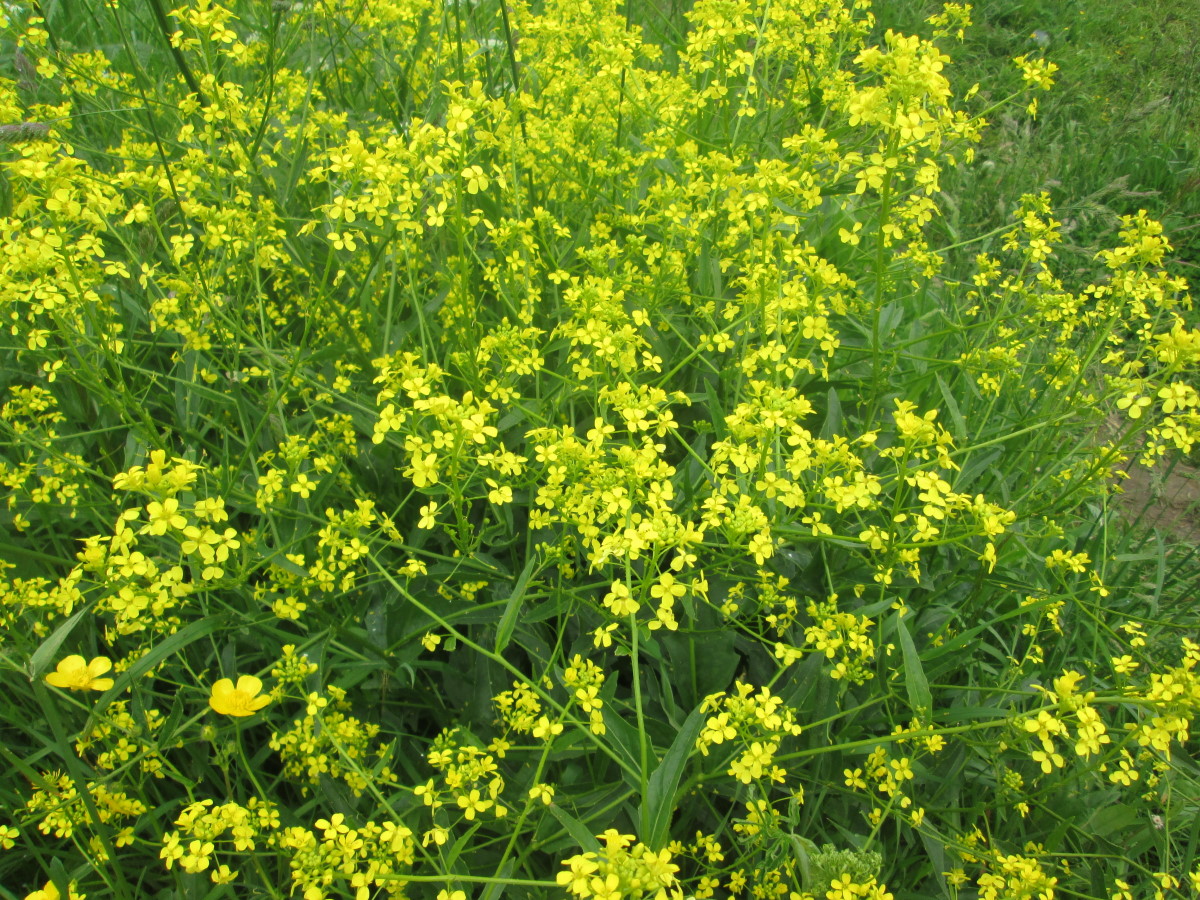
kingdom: Plantae
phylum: Tracheophyta
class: Magnoliopsida
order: Brassicales
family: Brassicaceae
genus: Barbarea
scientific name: Barbarea vulgaris
